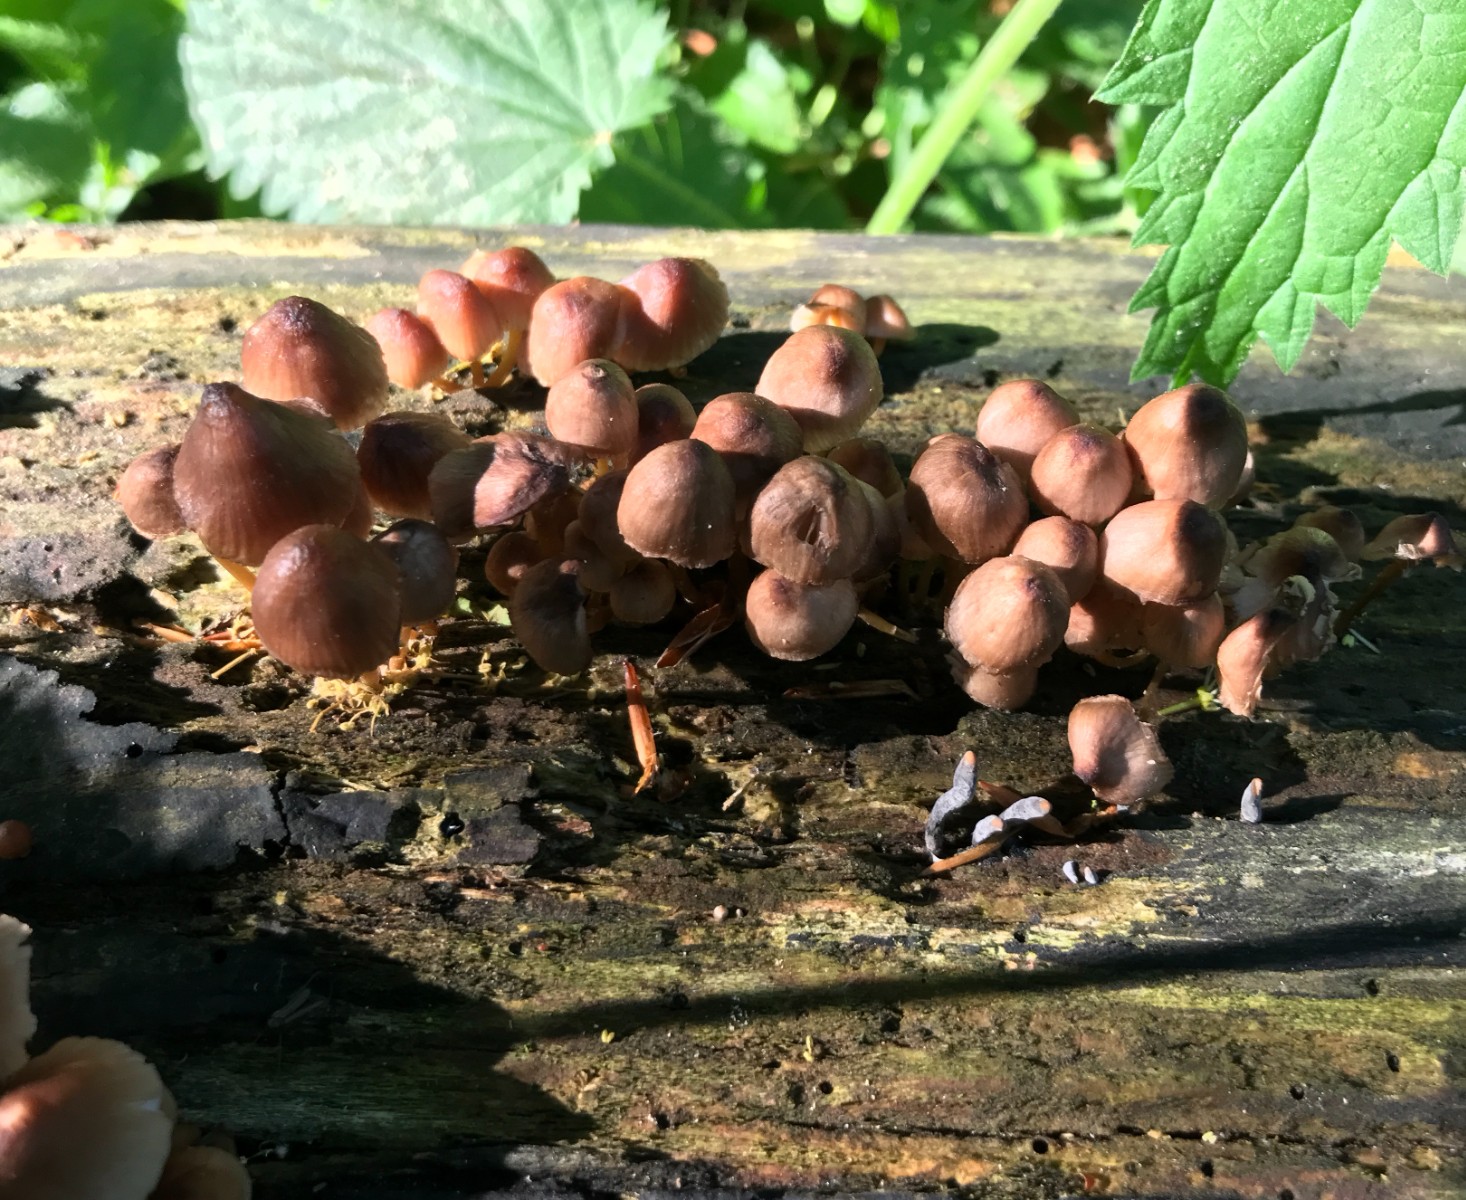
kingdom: Fungi
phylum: Basidiomycota
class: Agaricomycetes
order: Agaricales
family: Mycenaceae
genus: Mycena
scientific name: Mycena renati
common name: smuk huesvamp
